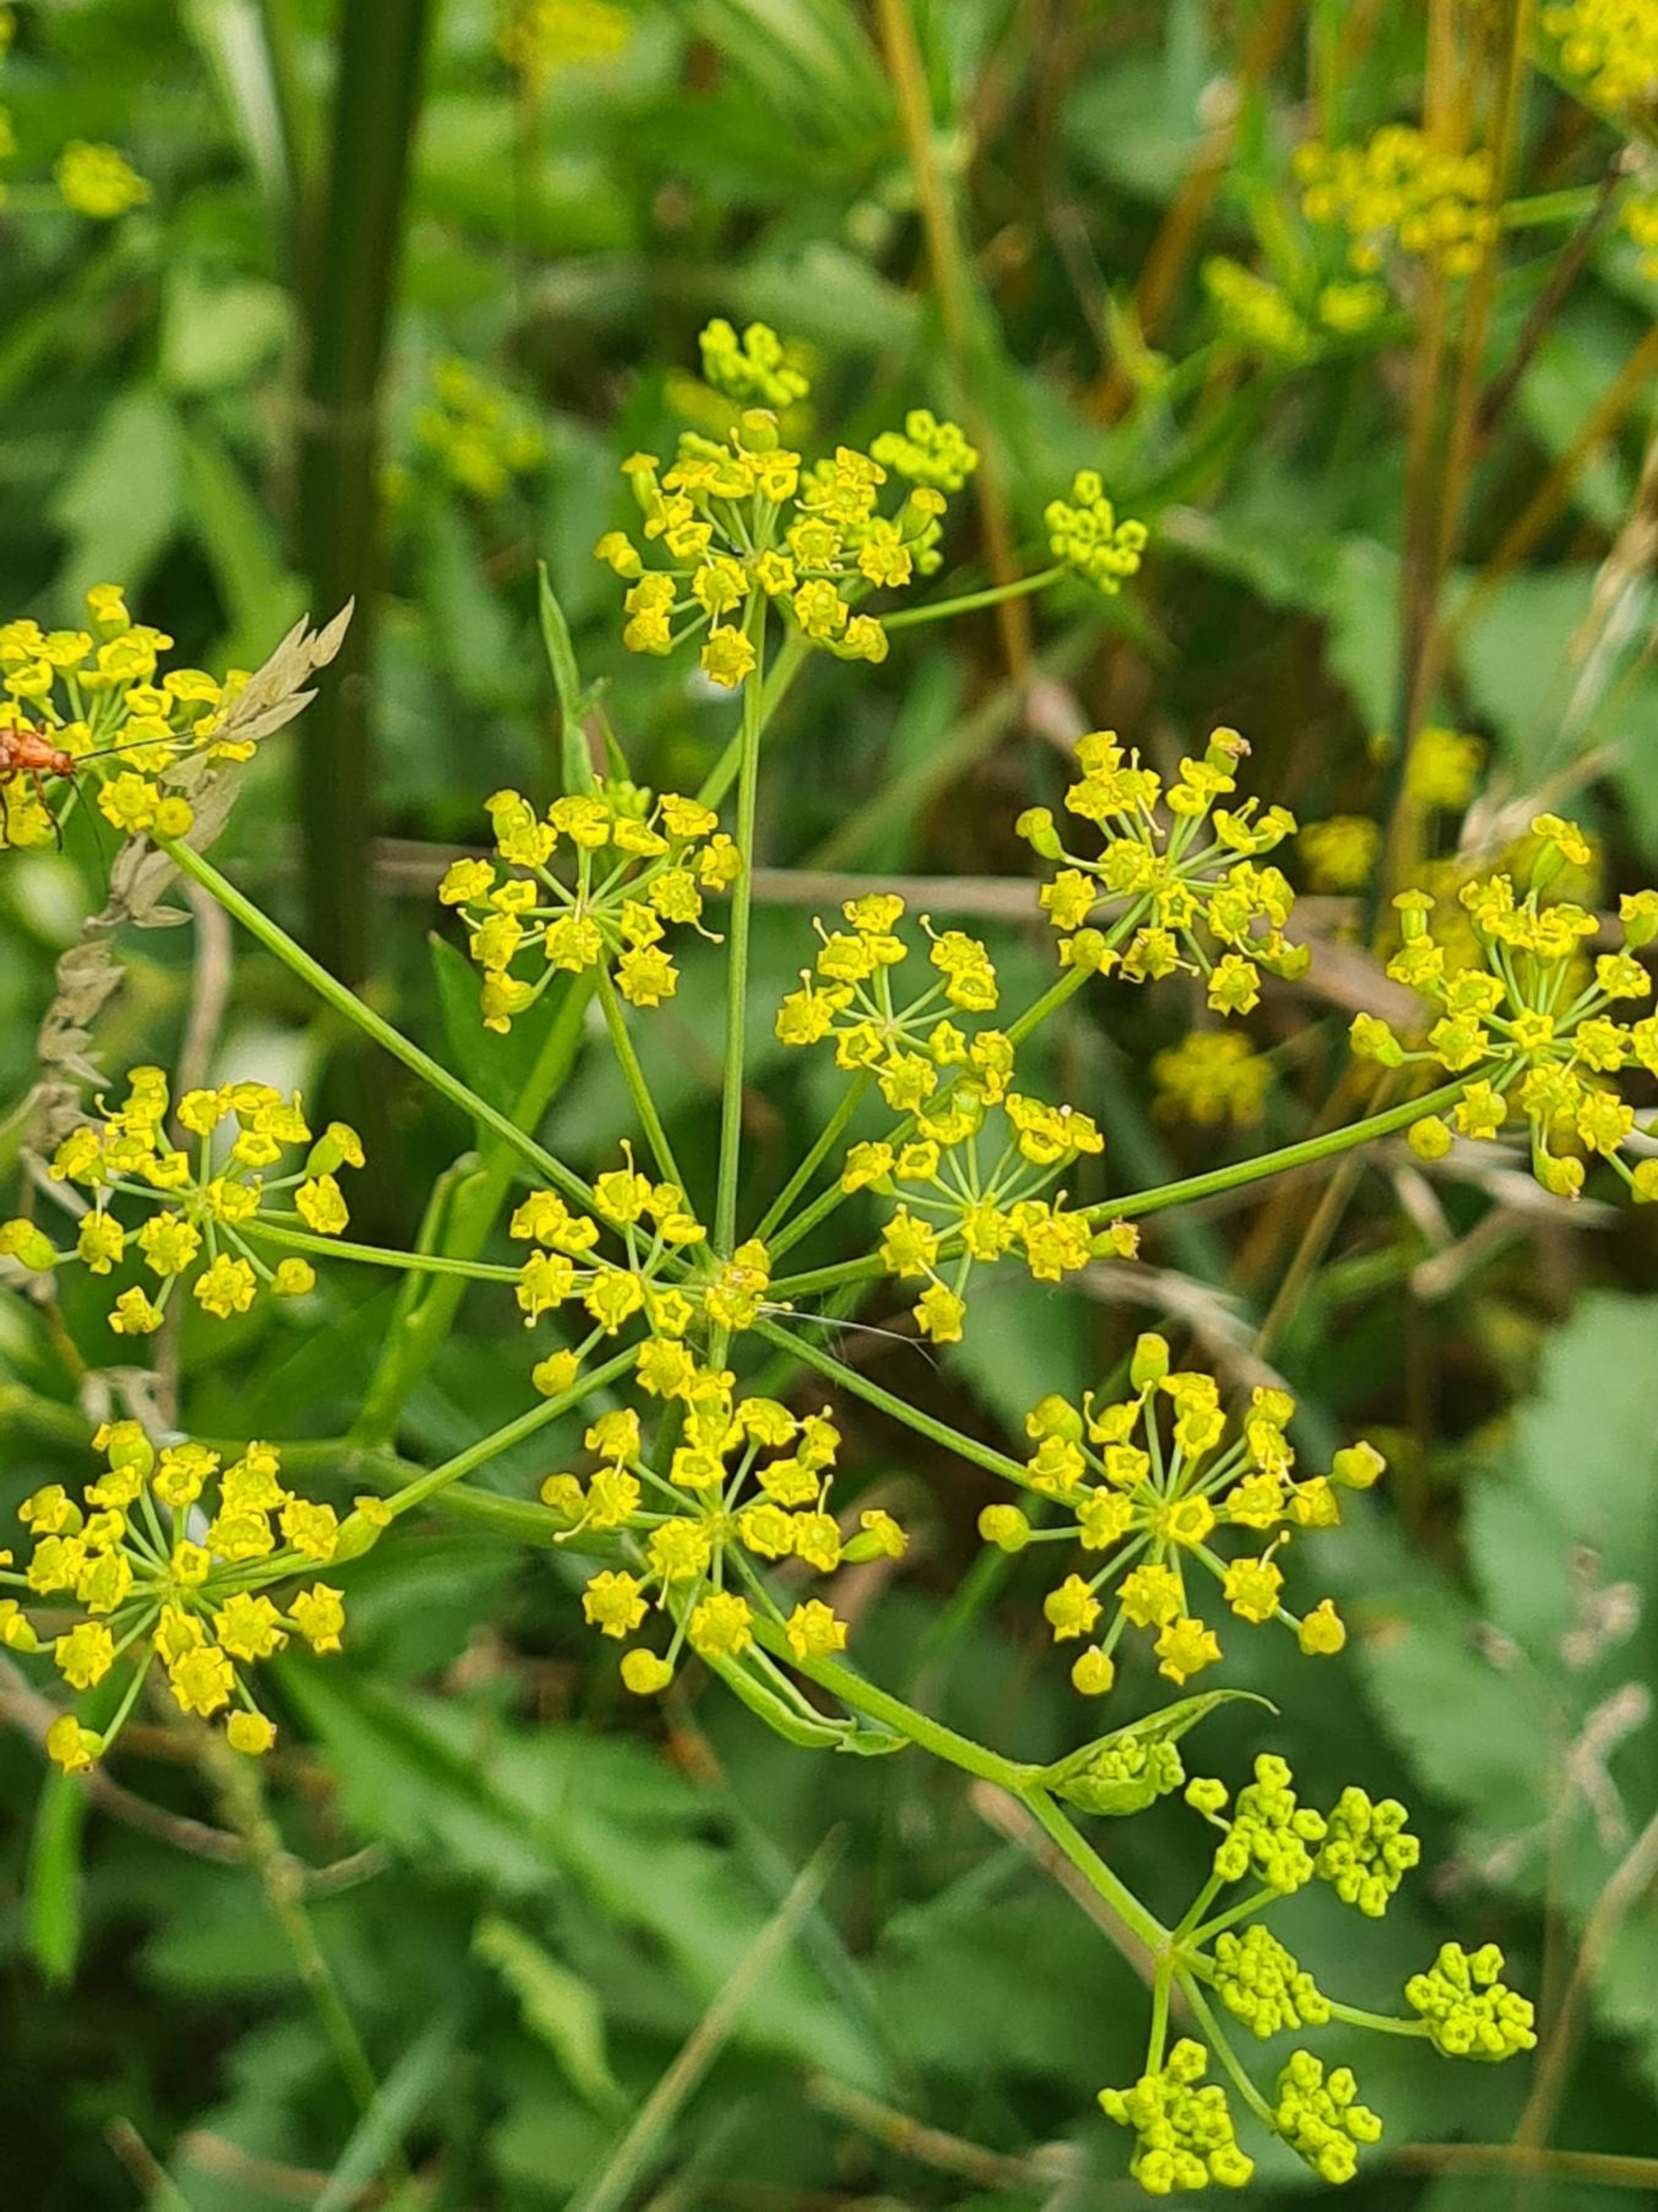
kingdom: Plantae
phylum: Tracheophyta
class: Magnoliopsida
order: Apiales
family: Apiaceae
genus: Pastinaca
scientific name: Pastinaca sativa
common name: Pastinak
